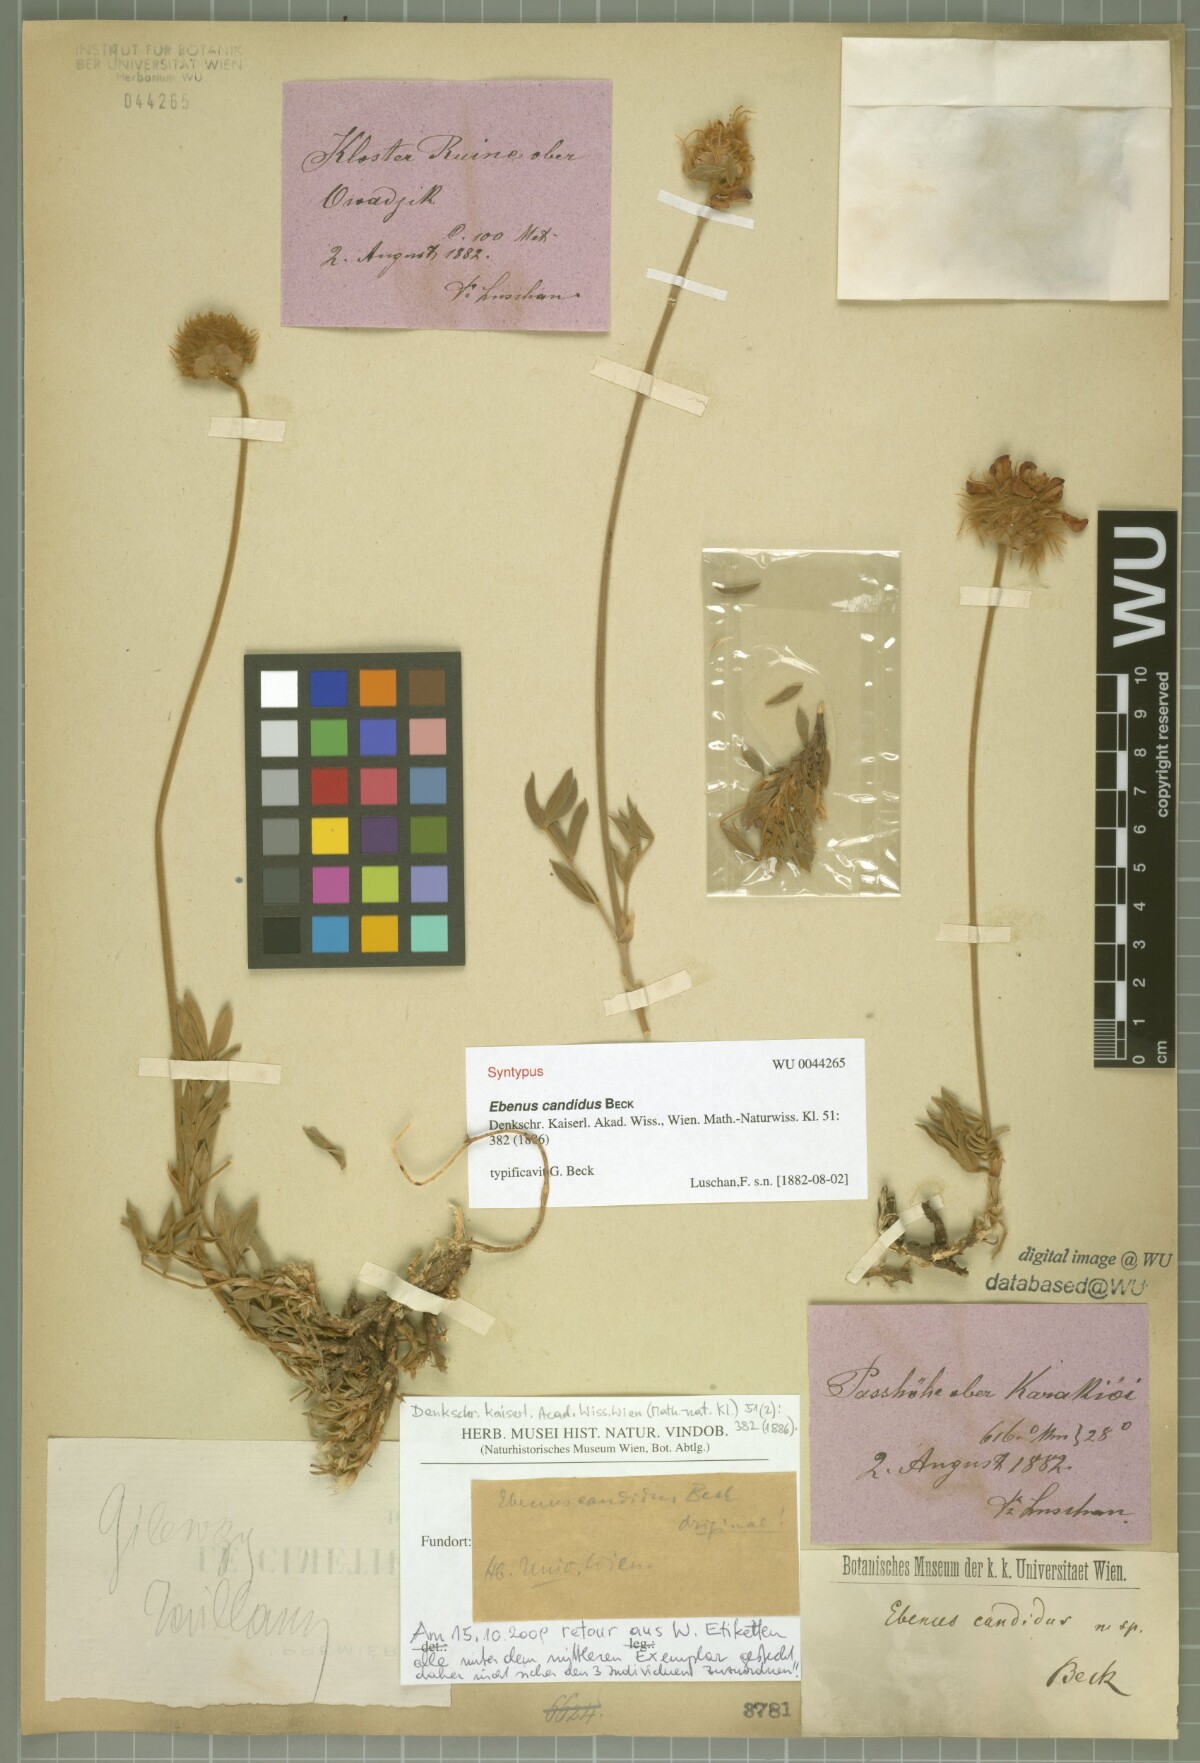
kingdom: Plantae
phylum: Tracheophyta
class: Magnoliopsida
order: Fabales
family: Fabaceae
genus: Ebenus
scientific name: Ebenus candidus
